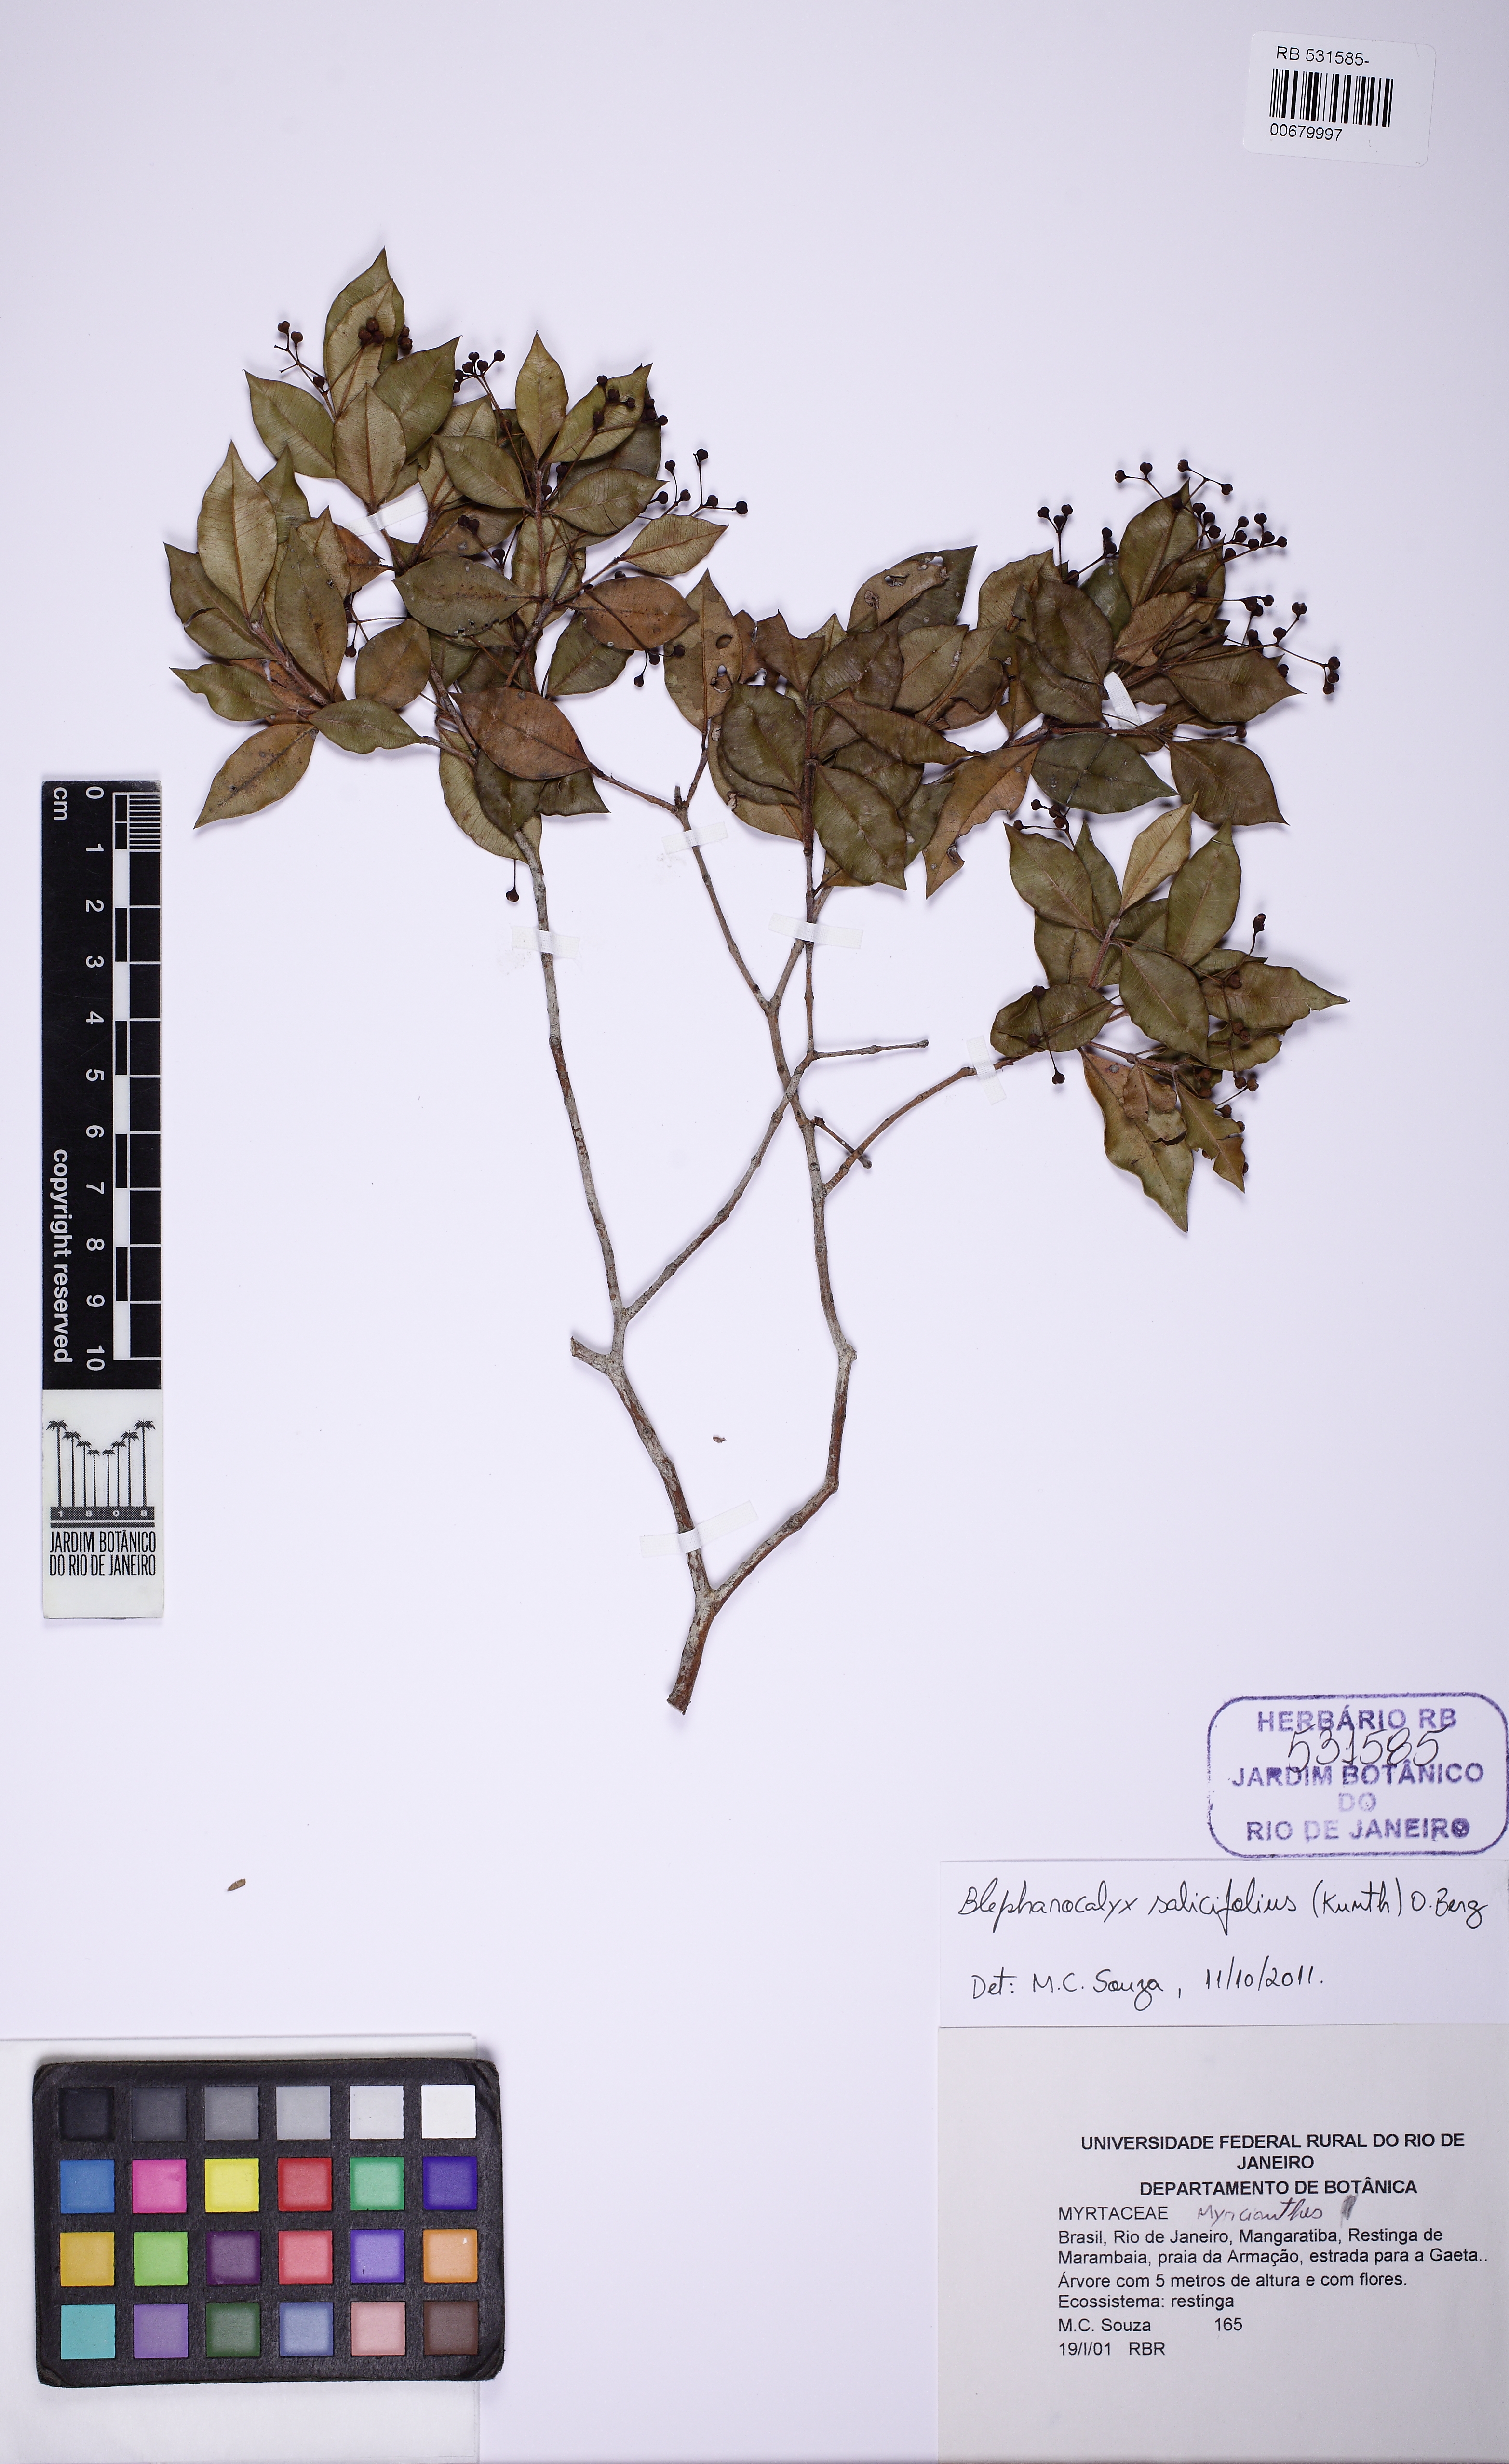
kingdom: Plantae
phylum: Tracheophyta
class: Magnoliopsida
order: Myrtales
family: Myrtaceae
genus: Blepharocalyx
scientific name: Blepharocalyx salicifolius
